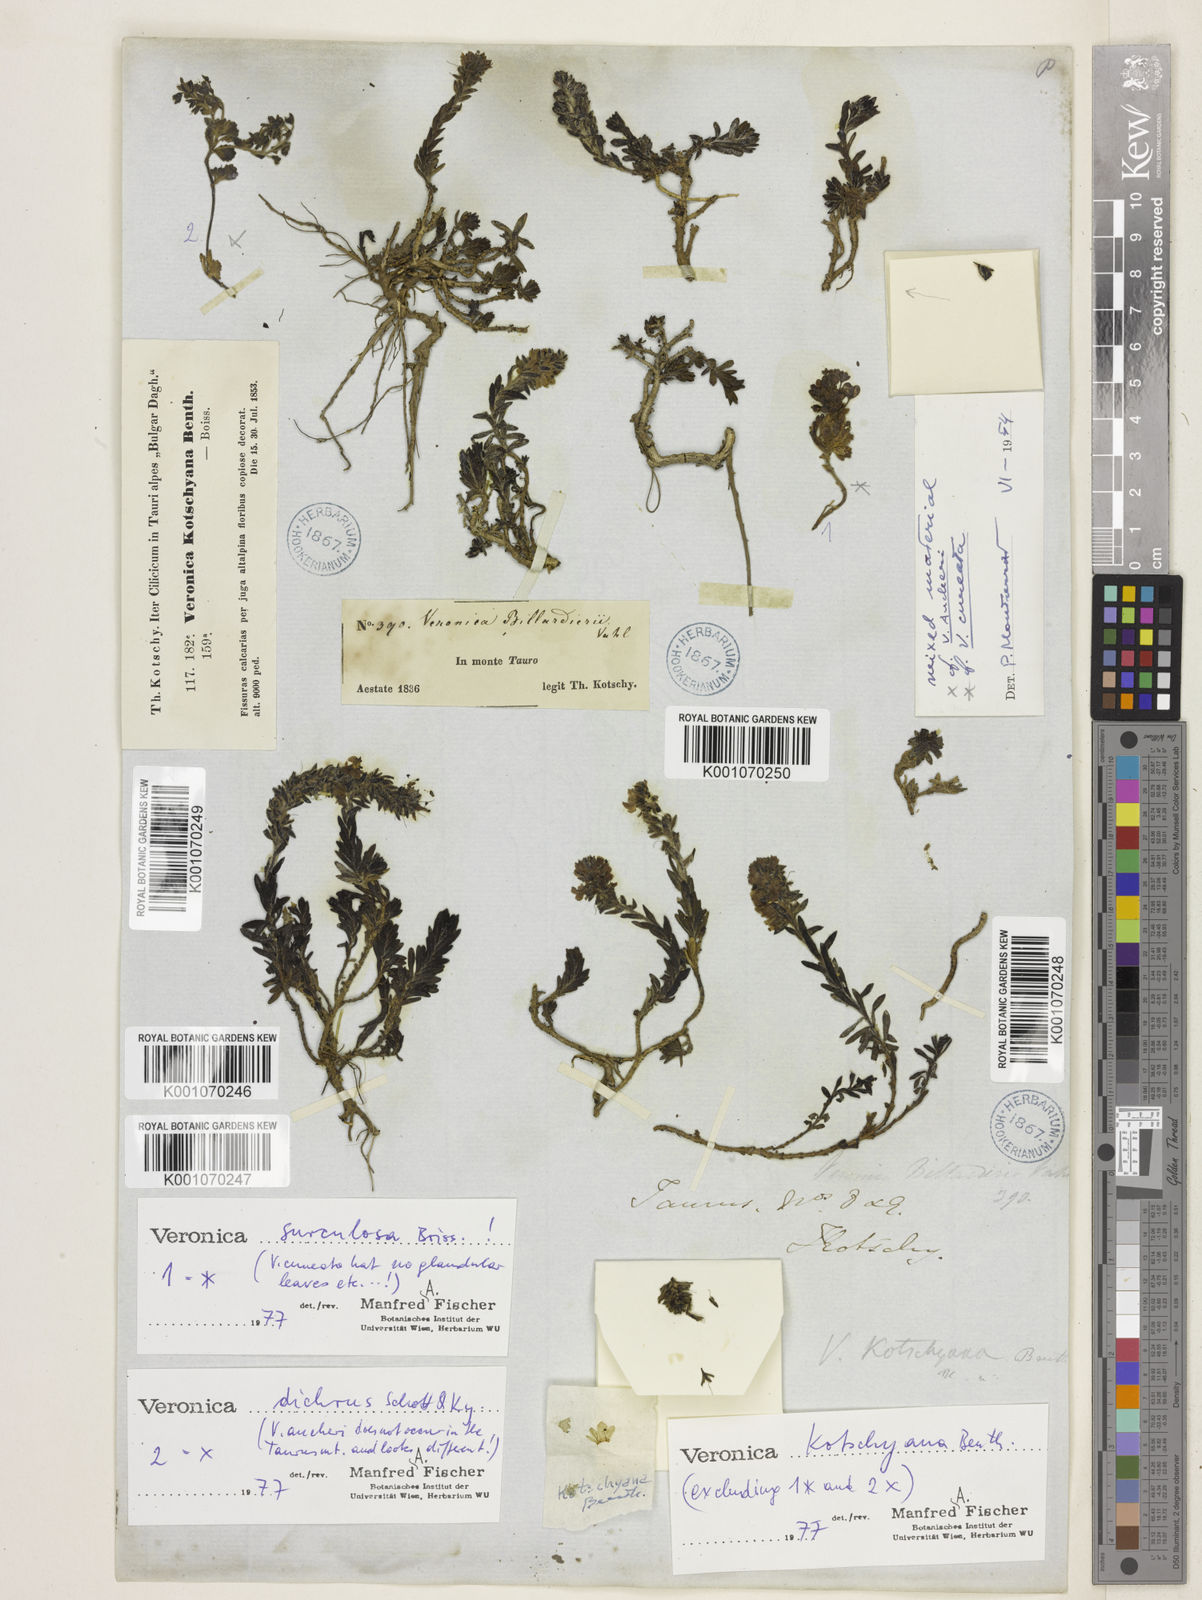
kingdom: Plantae
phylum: Tracheophyta
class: Magnoliopsida
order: Lamiales
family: Plantaginaceae
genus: Veronica
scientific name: Veronica kotschyana
